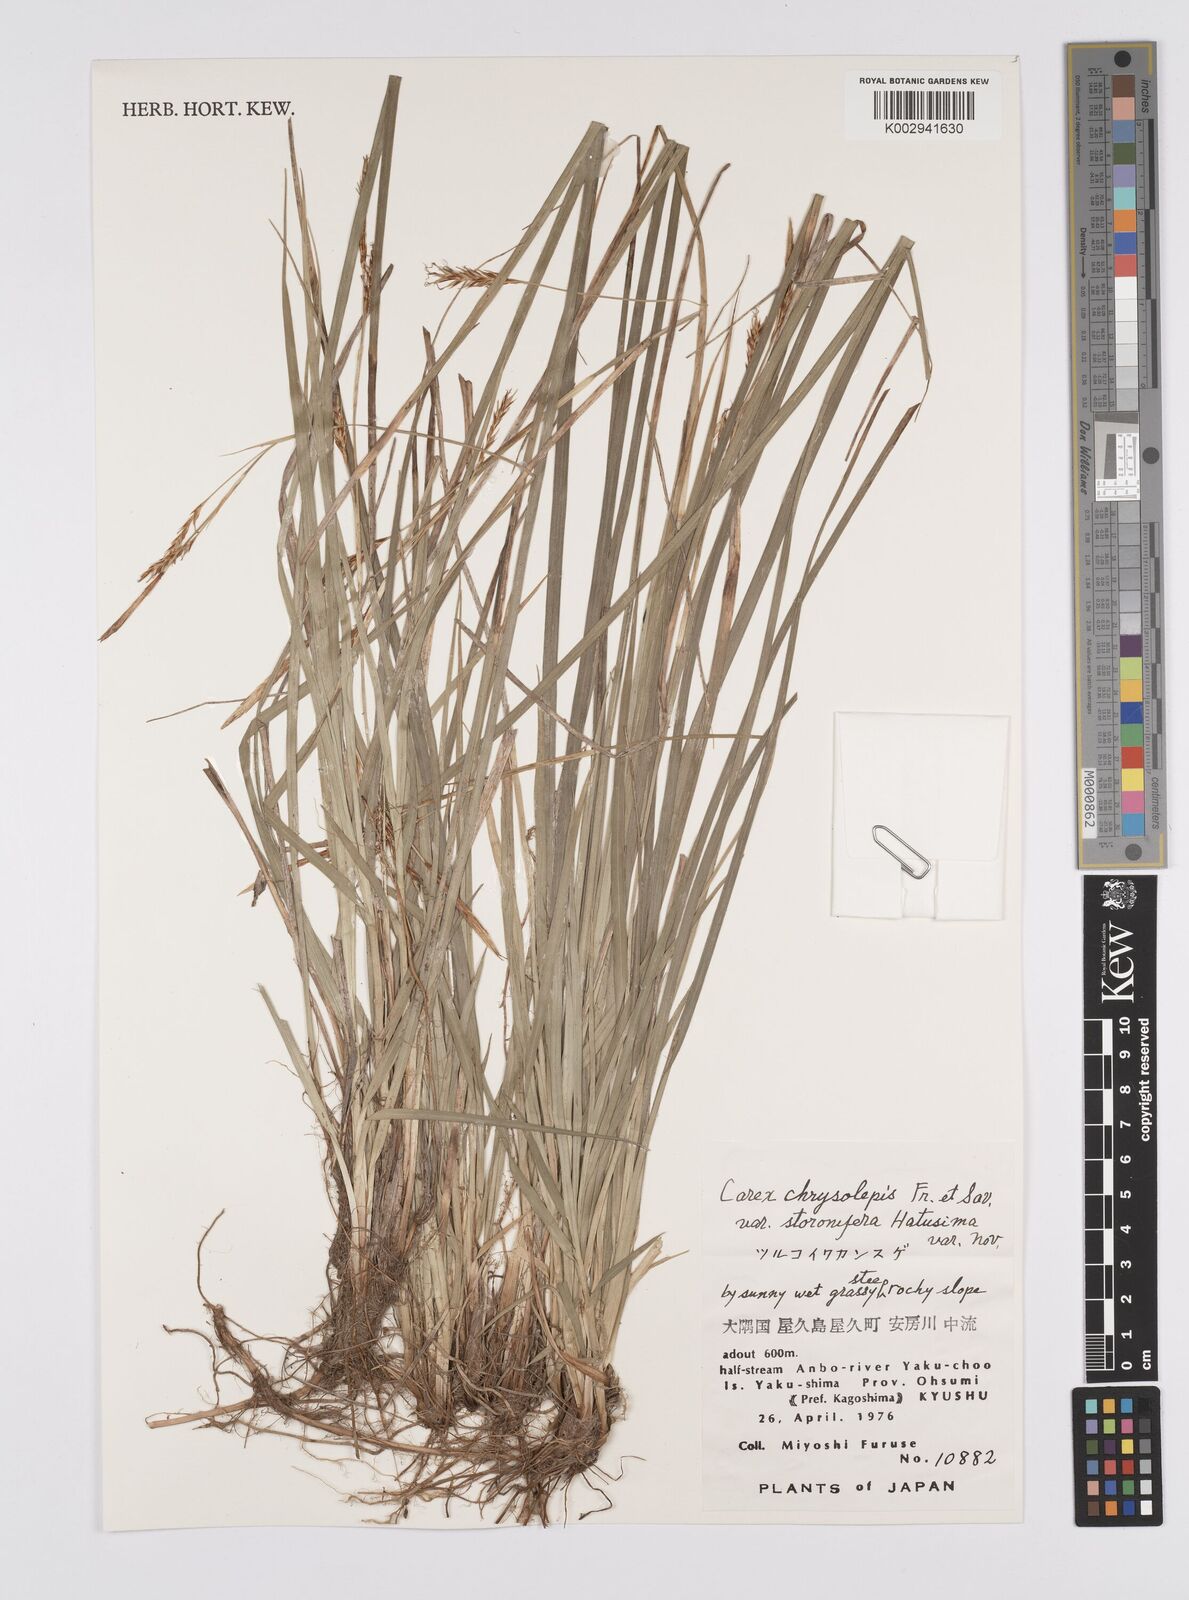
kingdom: Plantae
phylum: Tracheophyta
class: Liliopsida
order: Poales
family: Cyperaceae
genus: Carex
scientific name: Carex chrysolepis
